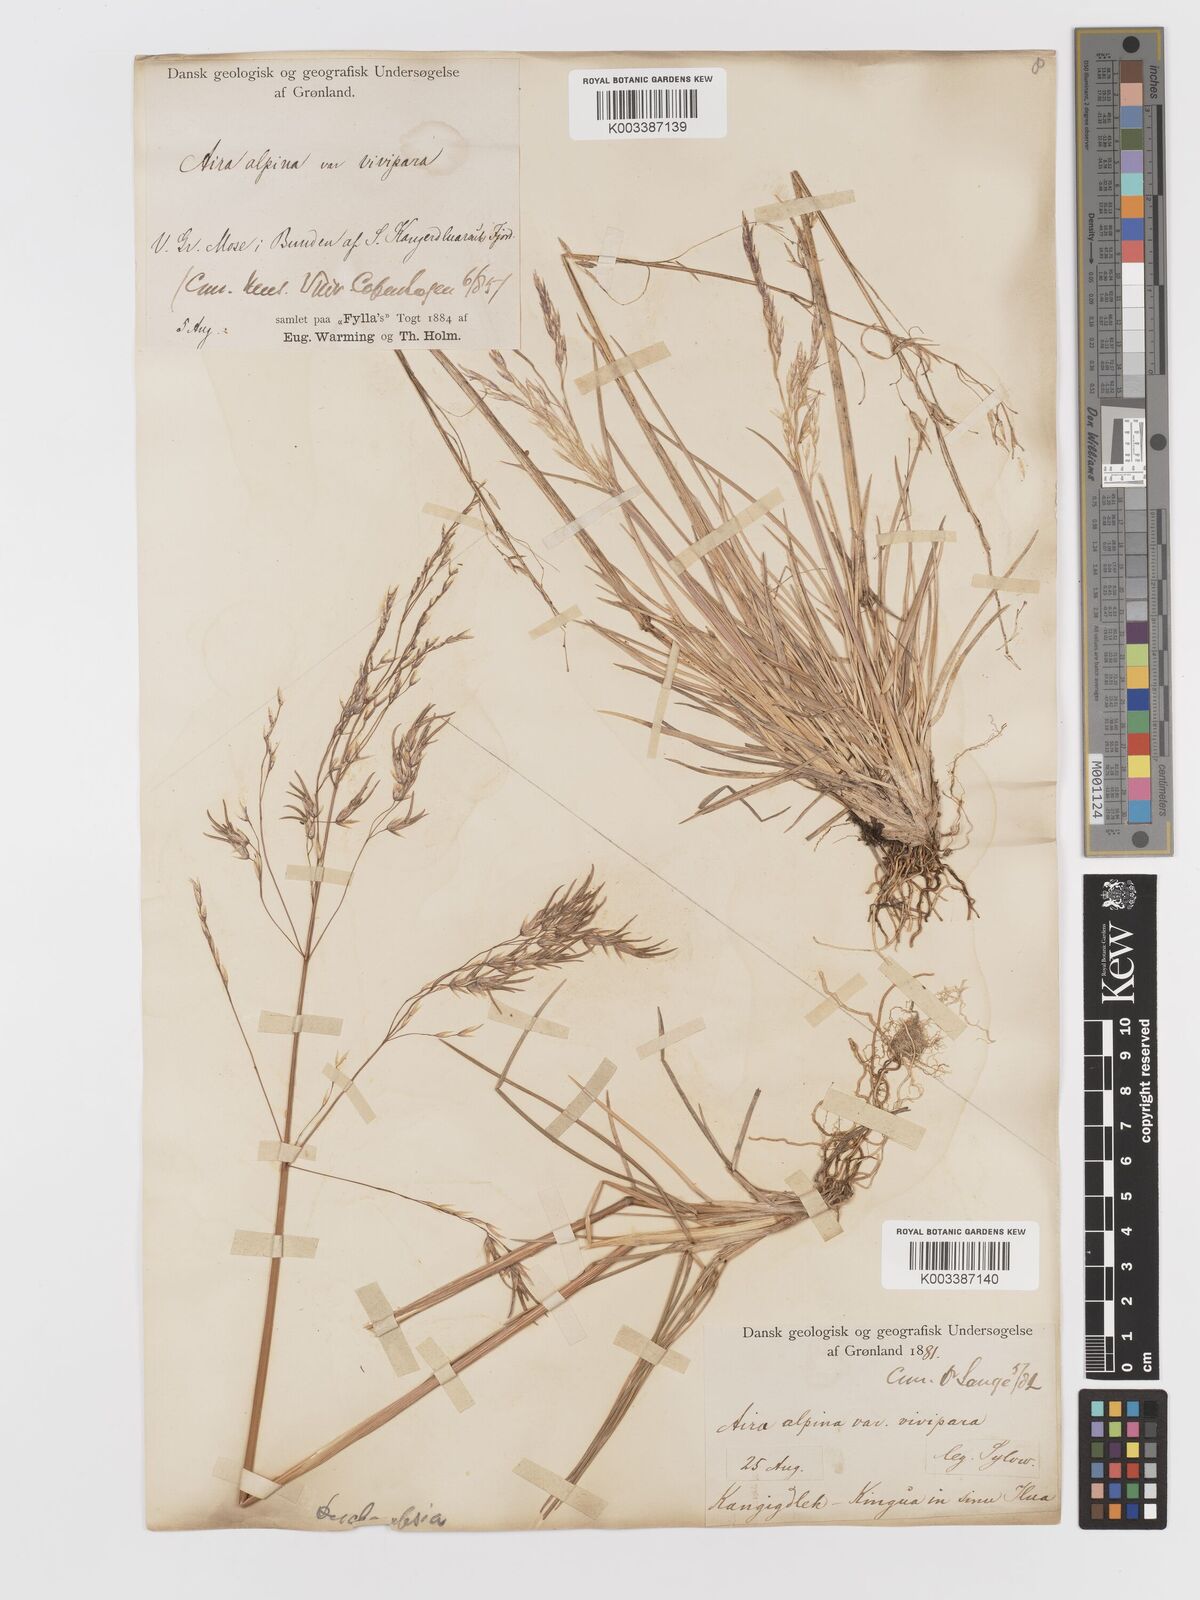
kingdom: Plantae
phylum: Tracheophyta
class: Liliopsida
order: Poales
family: Poaceae
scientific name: Poaceae
